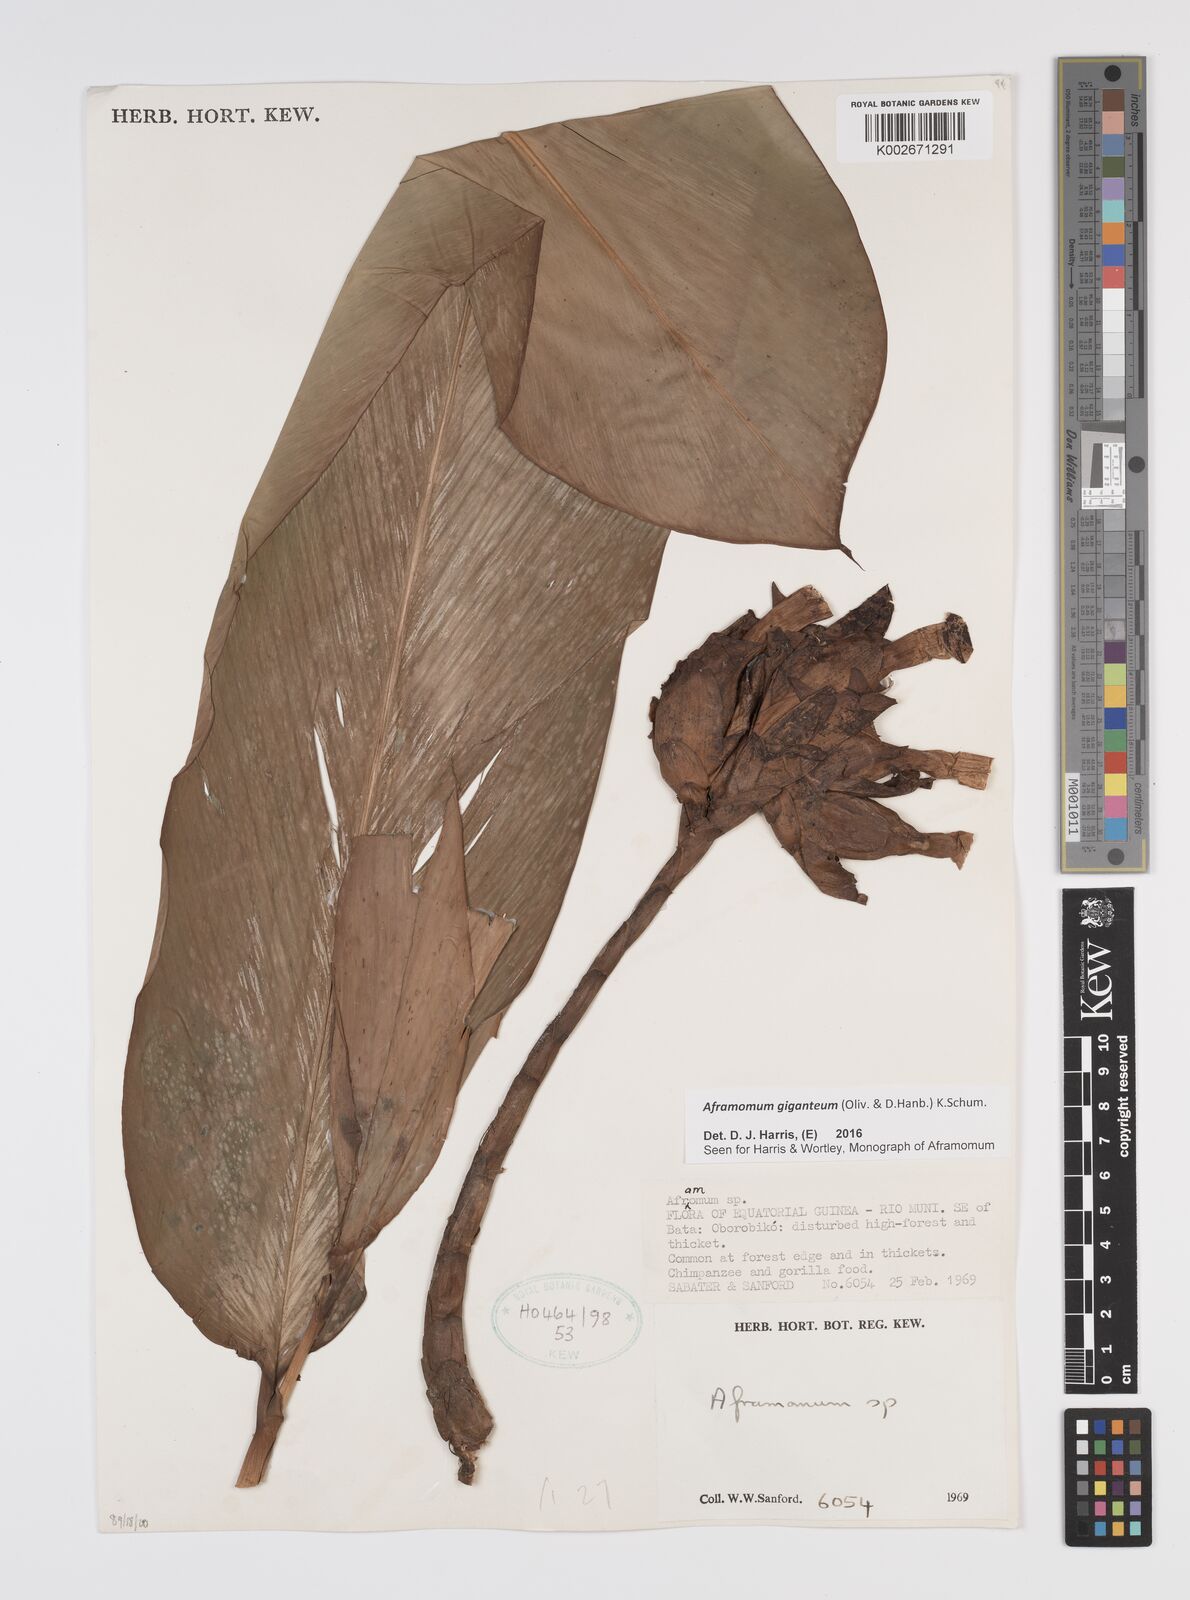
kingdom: Plantae
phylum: Tracheophyta
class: Liliopsida
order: Zingiberales
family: Zingiberaceae
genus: Aframomum
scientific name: Aframomum giganteum
